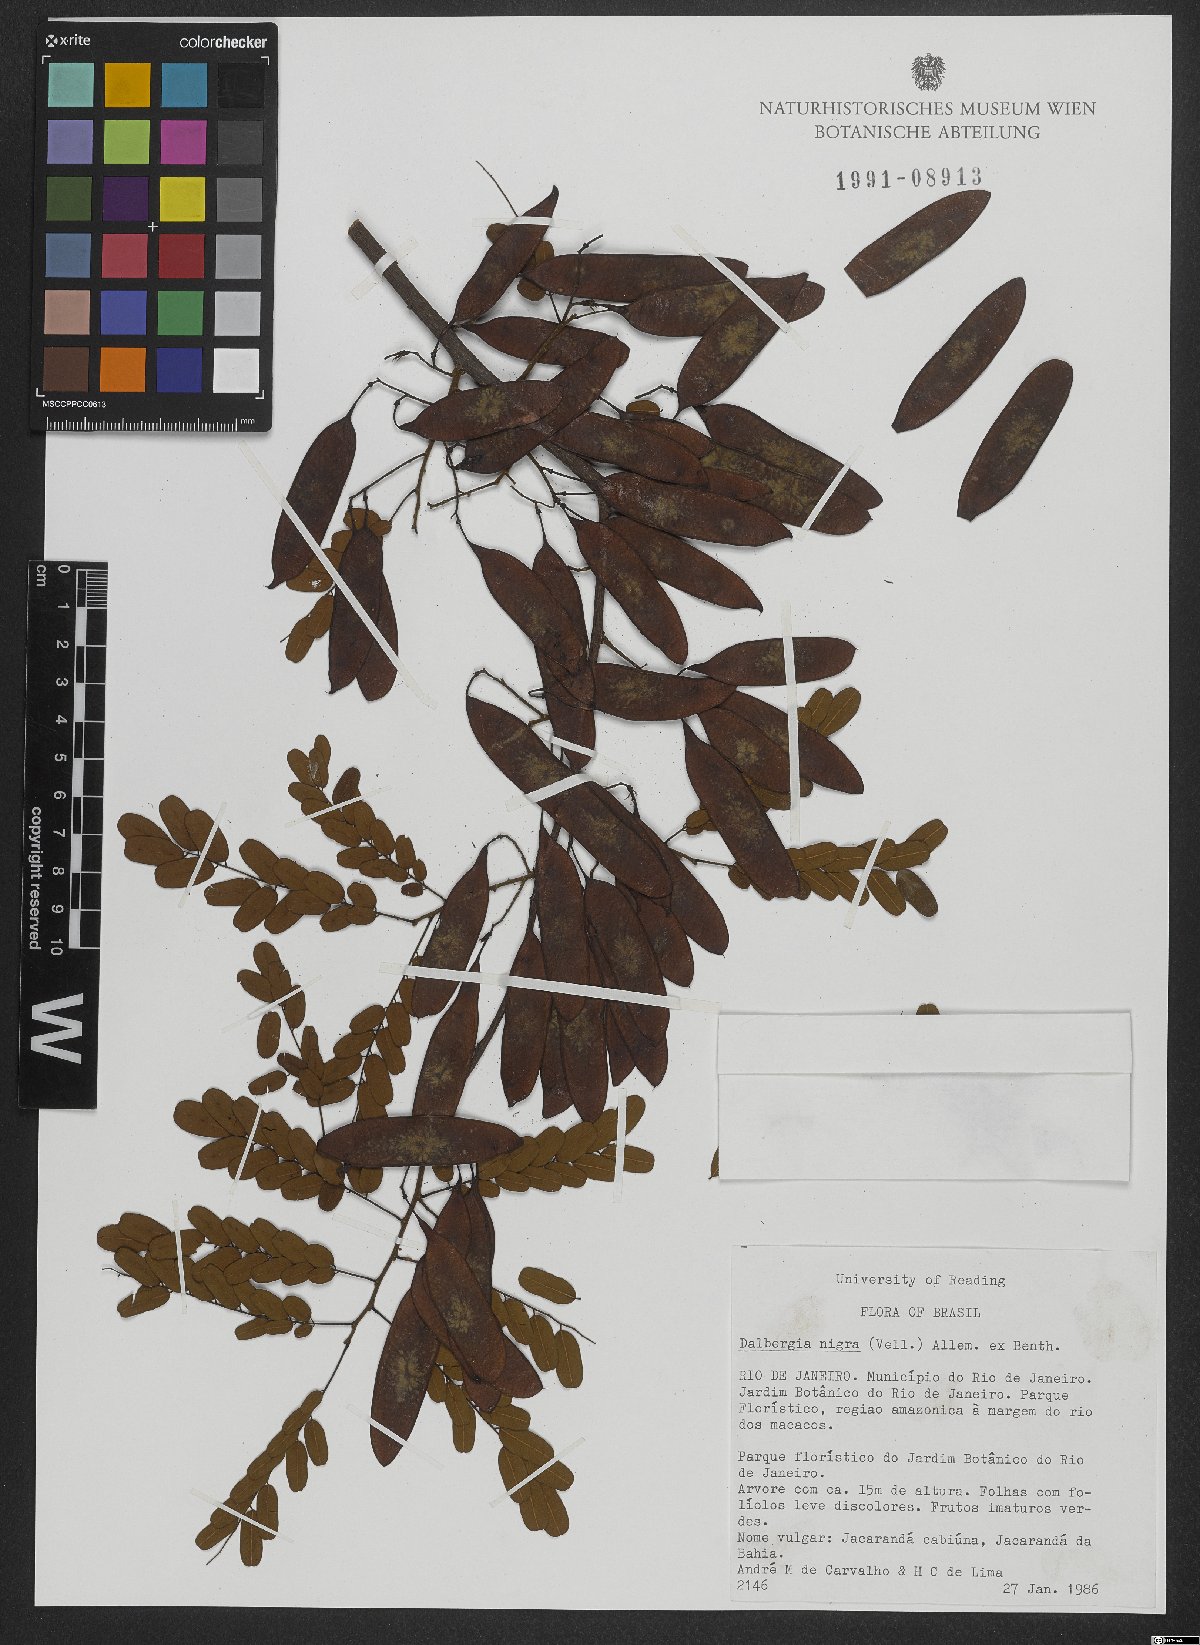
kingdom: Plantae
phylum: Tracheophyta
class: Magnoliopsida
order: Fabales
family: Fabaceae
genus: Dalbergia
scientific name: Dalbergia nigra
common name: Bahia rosewood
